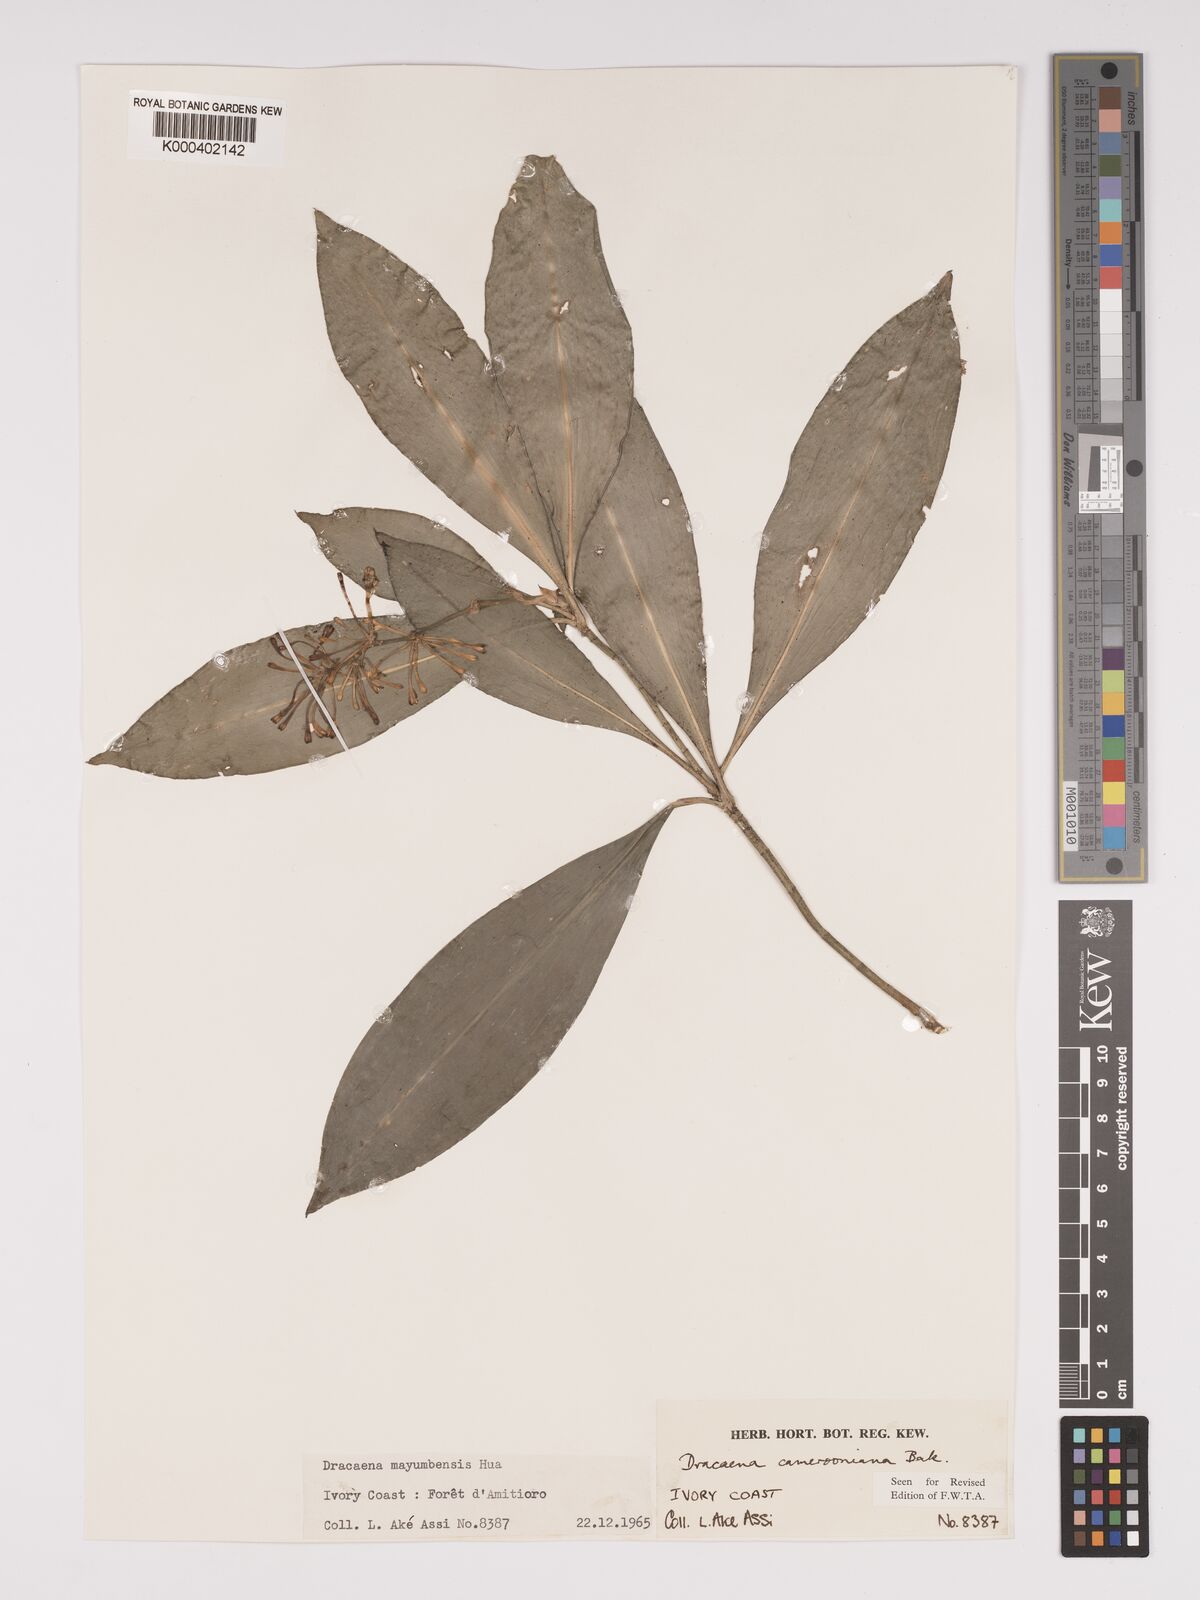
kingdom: Plantae
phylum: Tracheophyta
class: Liliopsida
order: Asparagales
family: Asparagaceae
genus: Dracaena
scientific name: Dracaena camerooniana
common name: Dragon tree
